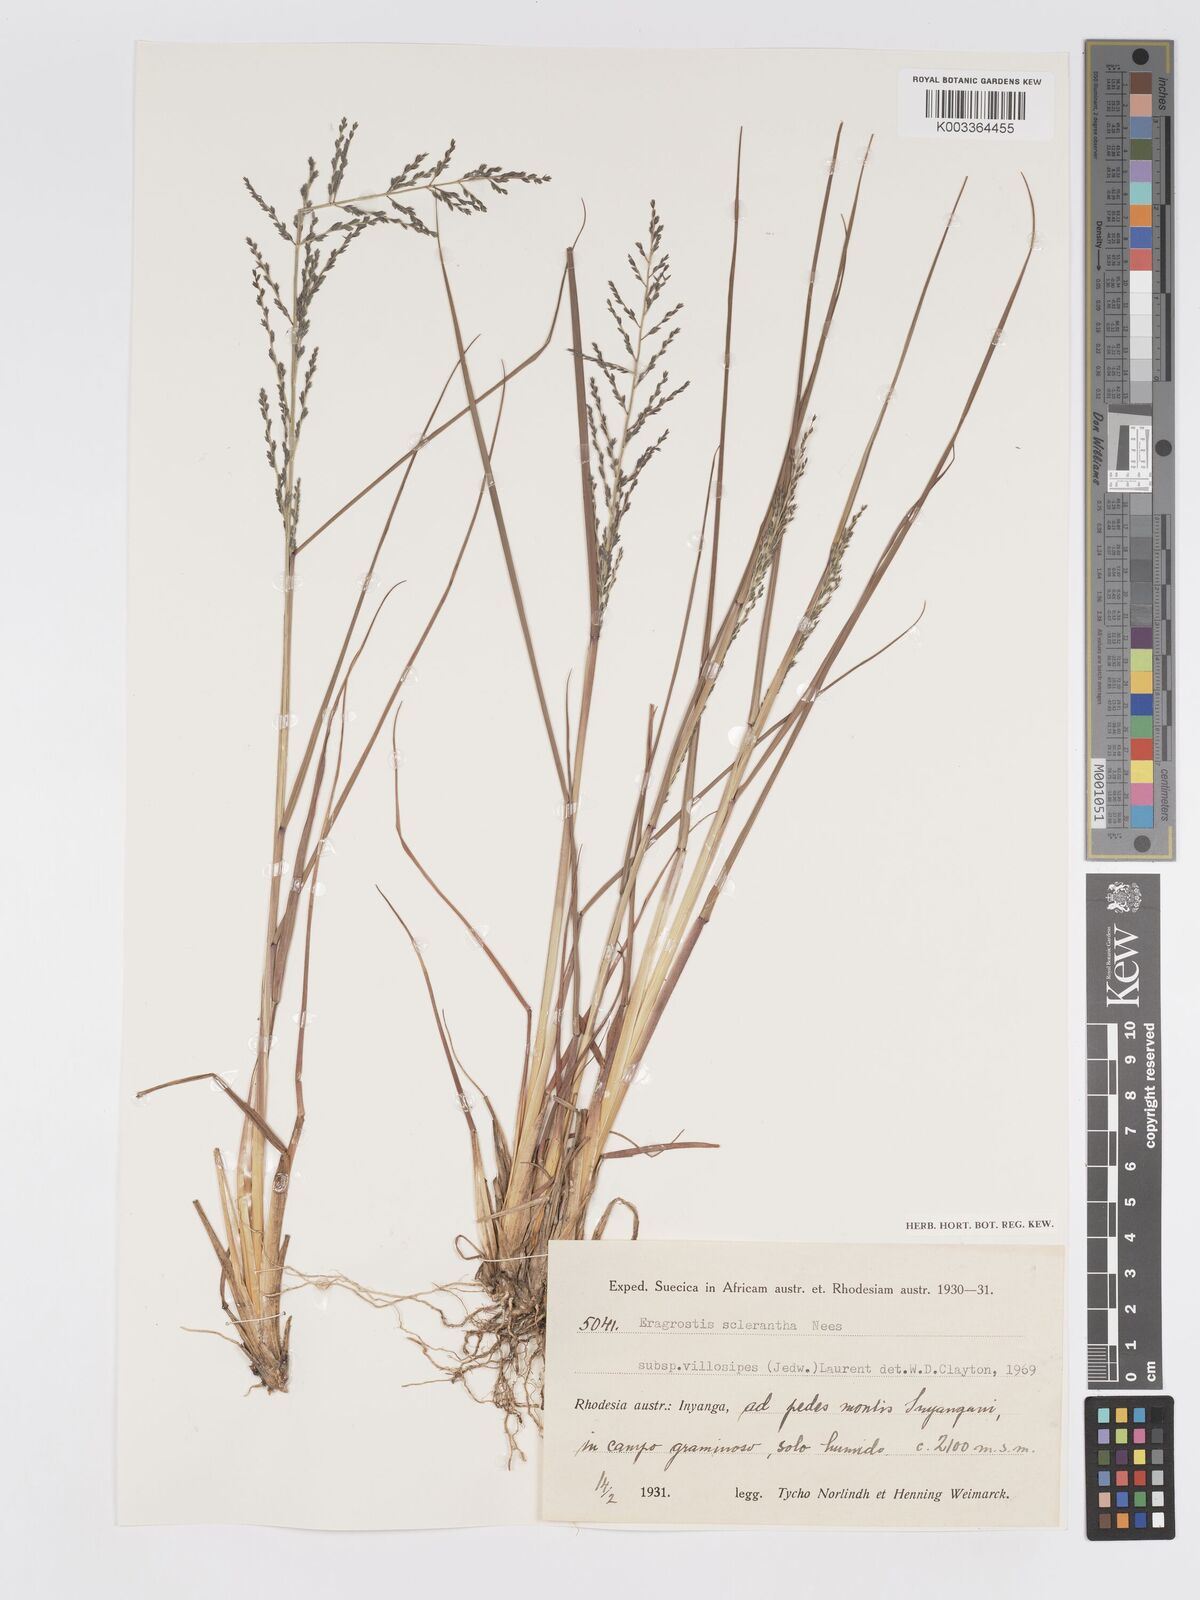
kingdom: Plantae
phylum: Tracheophyta
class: Liliopsida
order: Poales
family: Poaceae
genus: Eragrostis
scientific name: Eragrostis sclerantha
